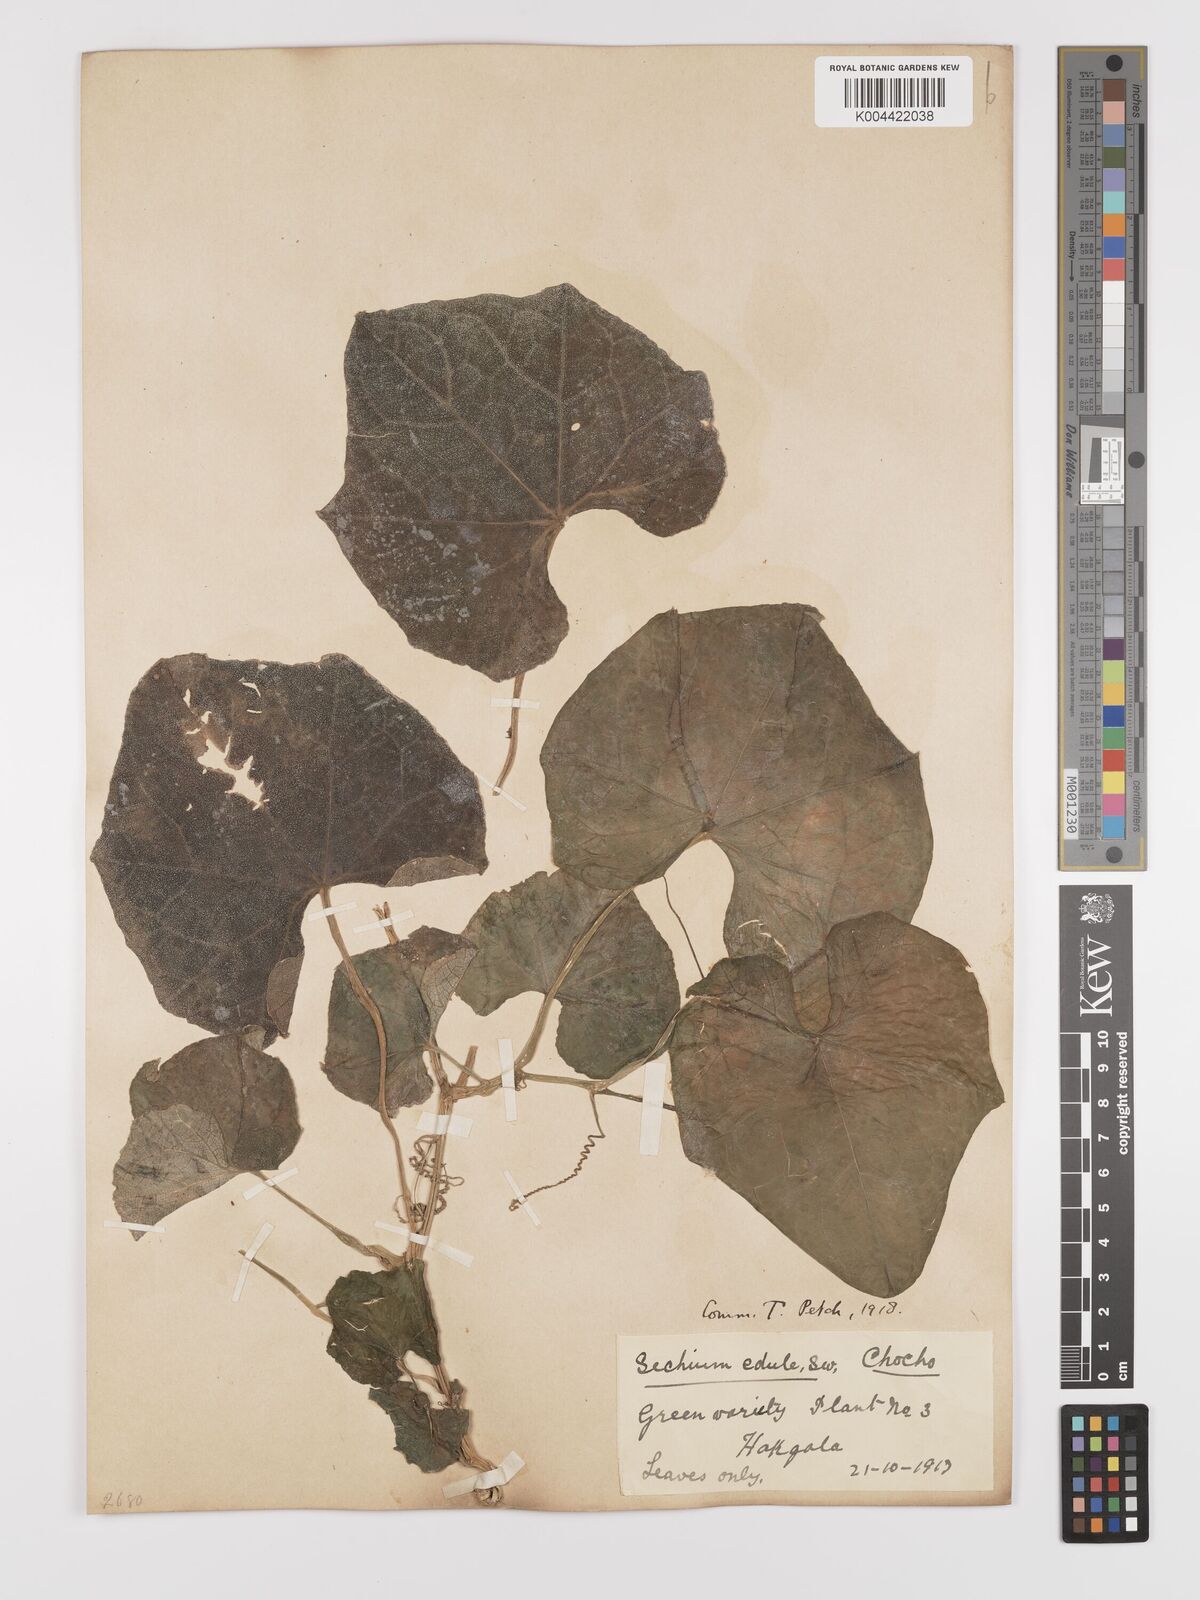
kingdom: Plantae
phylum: Tracheophyta
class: Magnoliopsida
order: Cucurbitales
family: Cucurbitaceae
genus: Sechium
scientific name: Sechium edule
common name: Chayote
